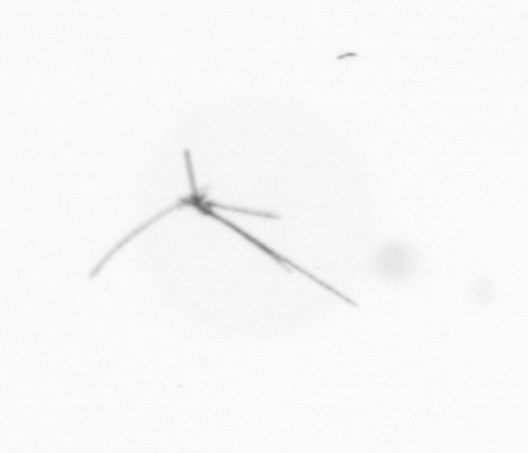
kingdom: Chromista
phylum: Ochrophyta
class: Bacillariophyceae
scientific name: Bacillariophyceae
